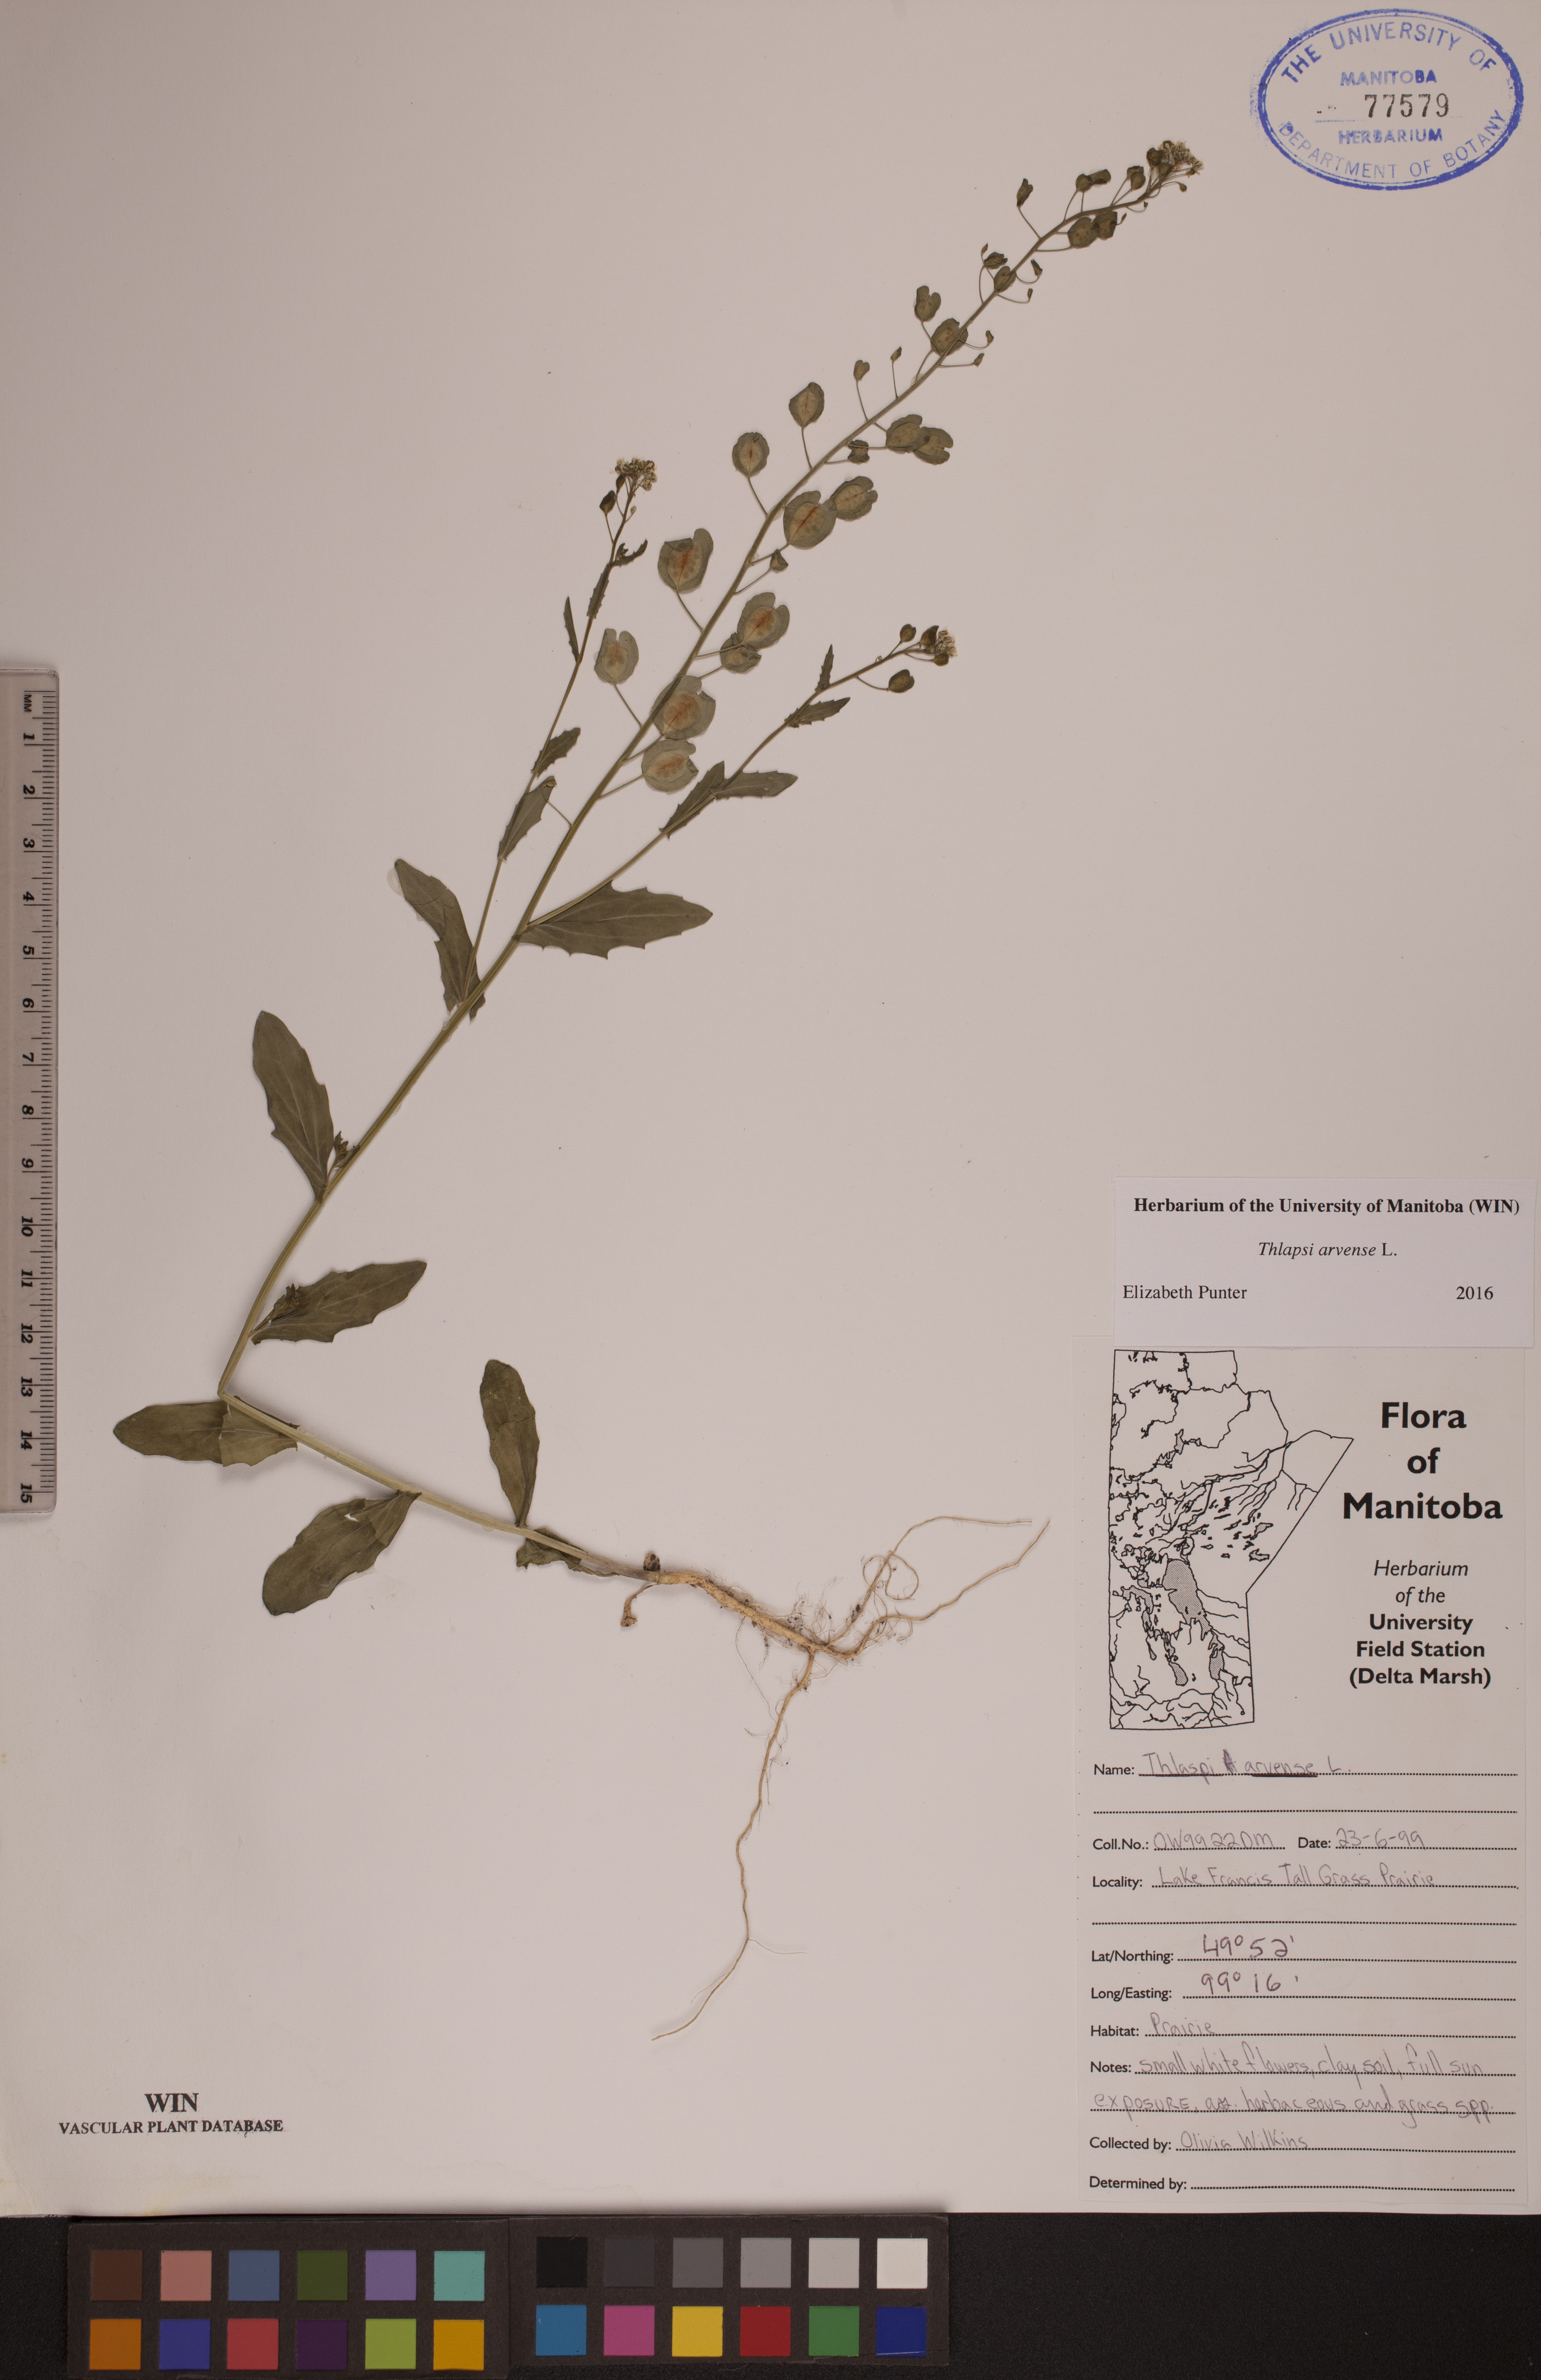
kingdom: Plantae
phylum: Tracheophyta
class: Magnoliopsida
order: Brassicales
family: Brassicaceae
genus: Thlaspi
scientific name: Thlaspi arvense
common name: Field pennycress
